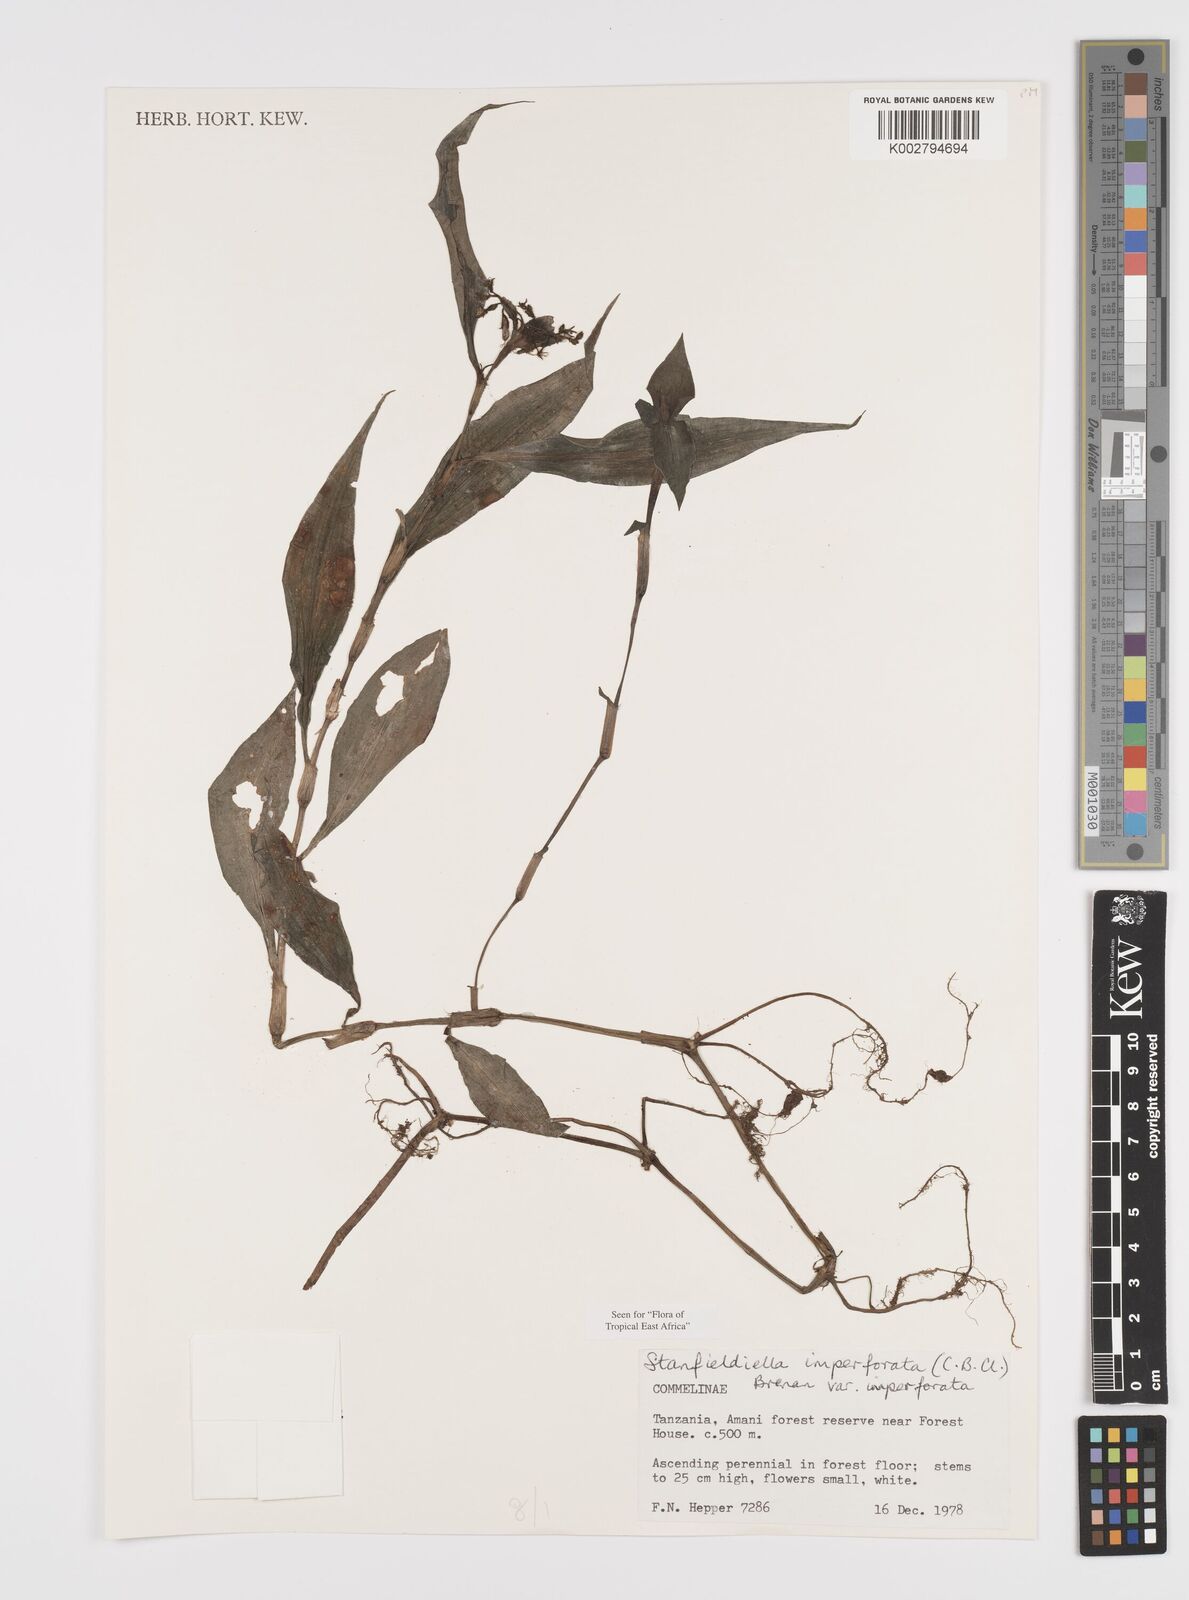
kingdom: Plantae
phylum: Tracheophyta
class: Liliopsida
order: Commelinales
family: Commelinaceae
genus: Stanfieldiella
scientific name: Stanfieldiella imperforata
